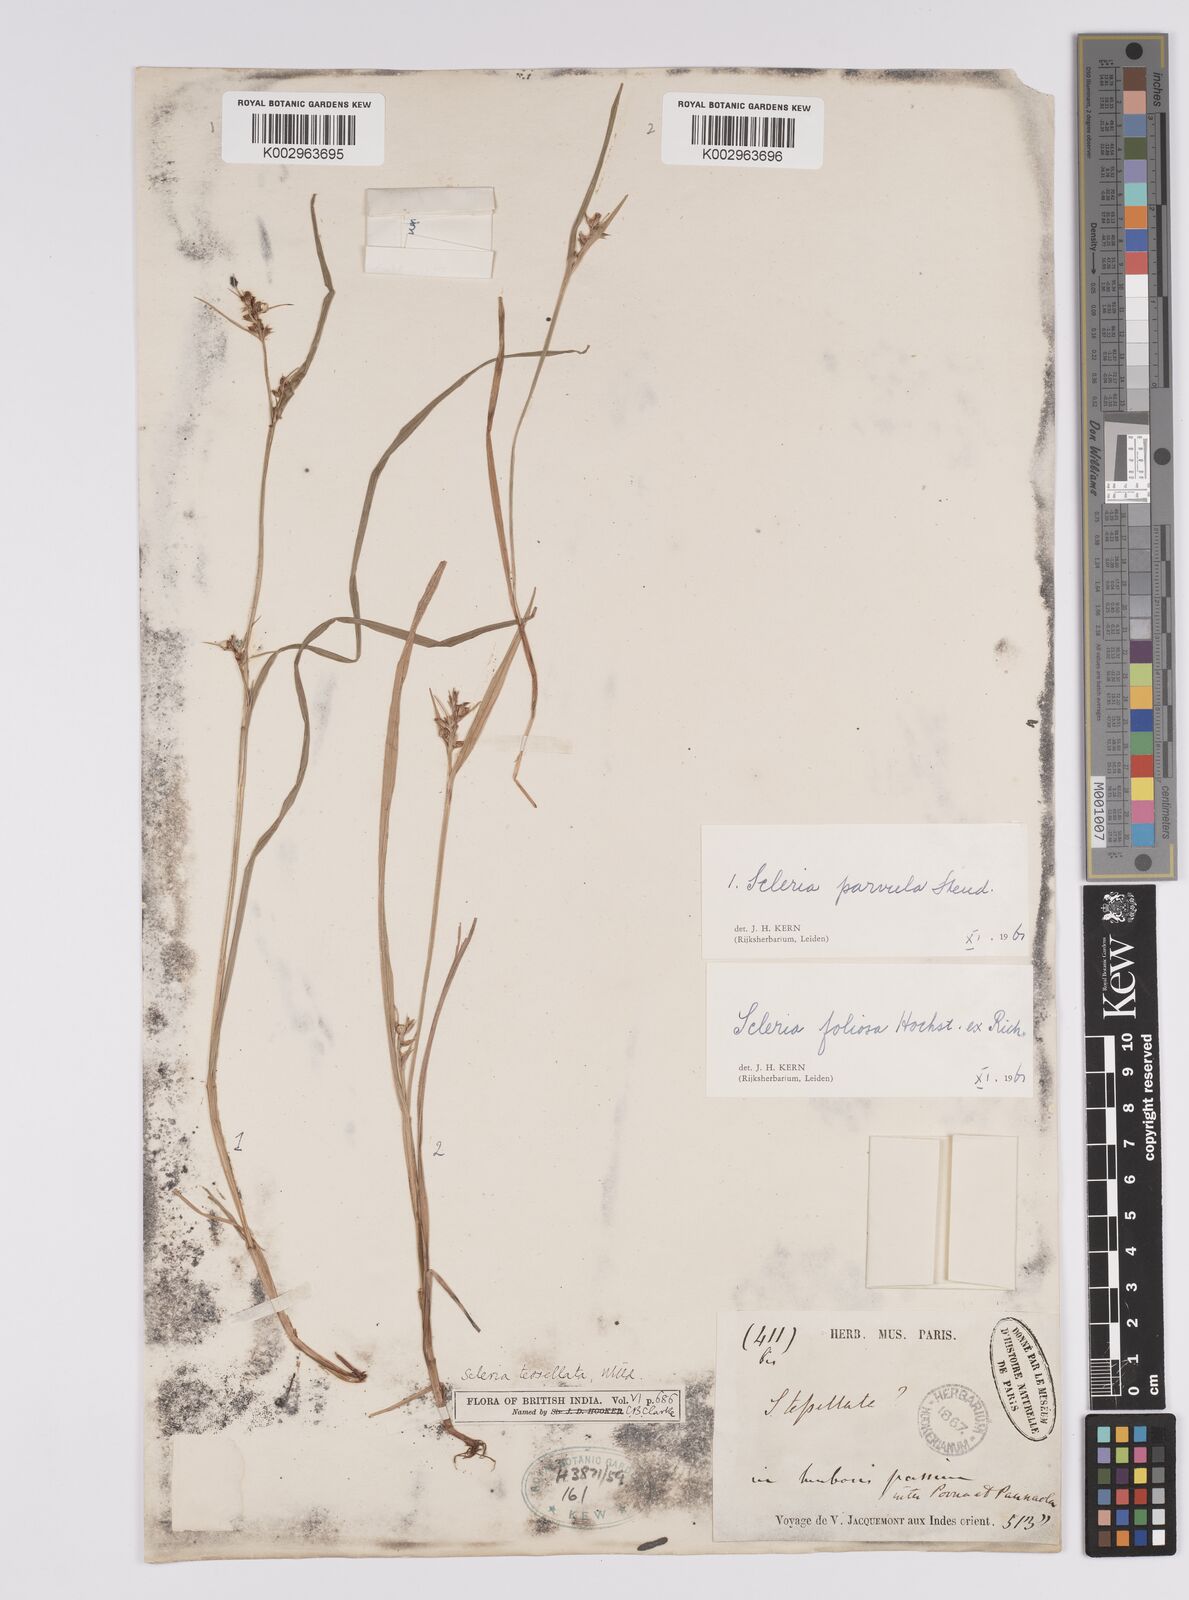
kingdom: Plantae
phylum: Tracheophyta
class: Liliopsida
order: Poales
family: Cyperaceae
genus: Scleria
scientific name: Scleria foliosa
